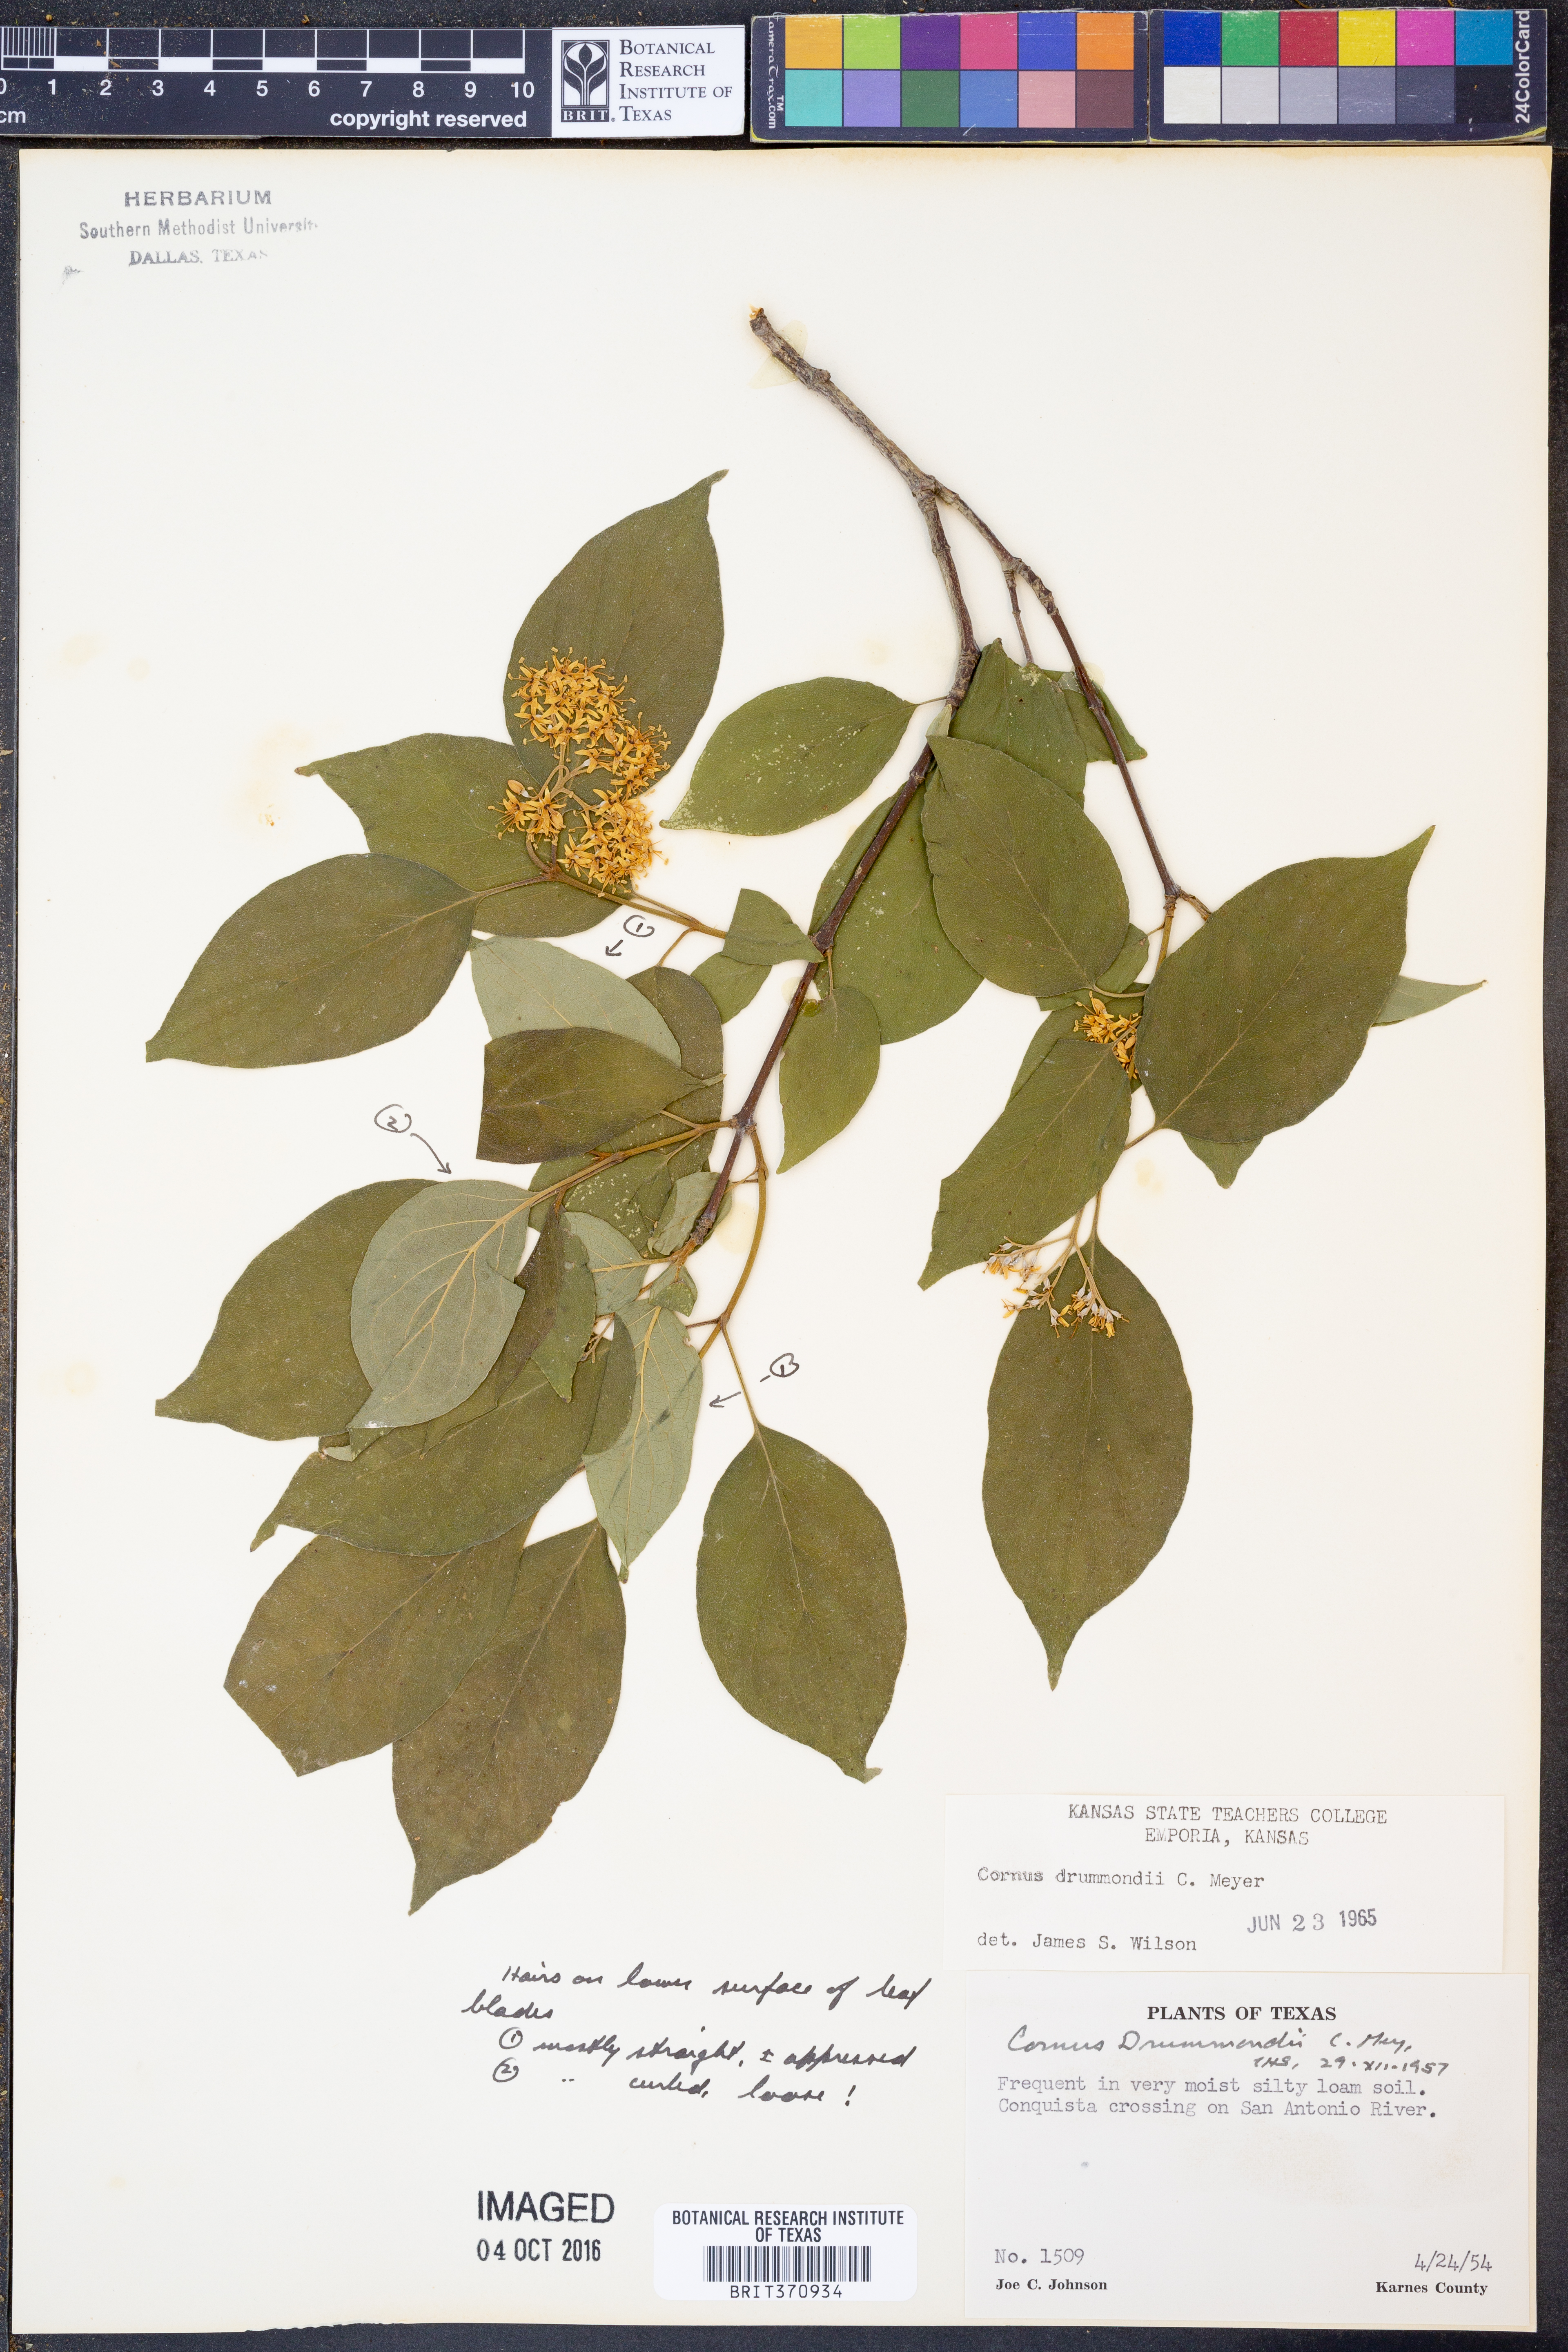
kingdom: Plantae
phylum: Tracheophyta
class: Magnoliopsida
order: Cornales
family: Cornaceae
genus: Cornus
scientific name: Cornus drummondii
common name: Rough-leaf dogwood
